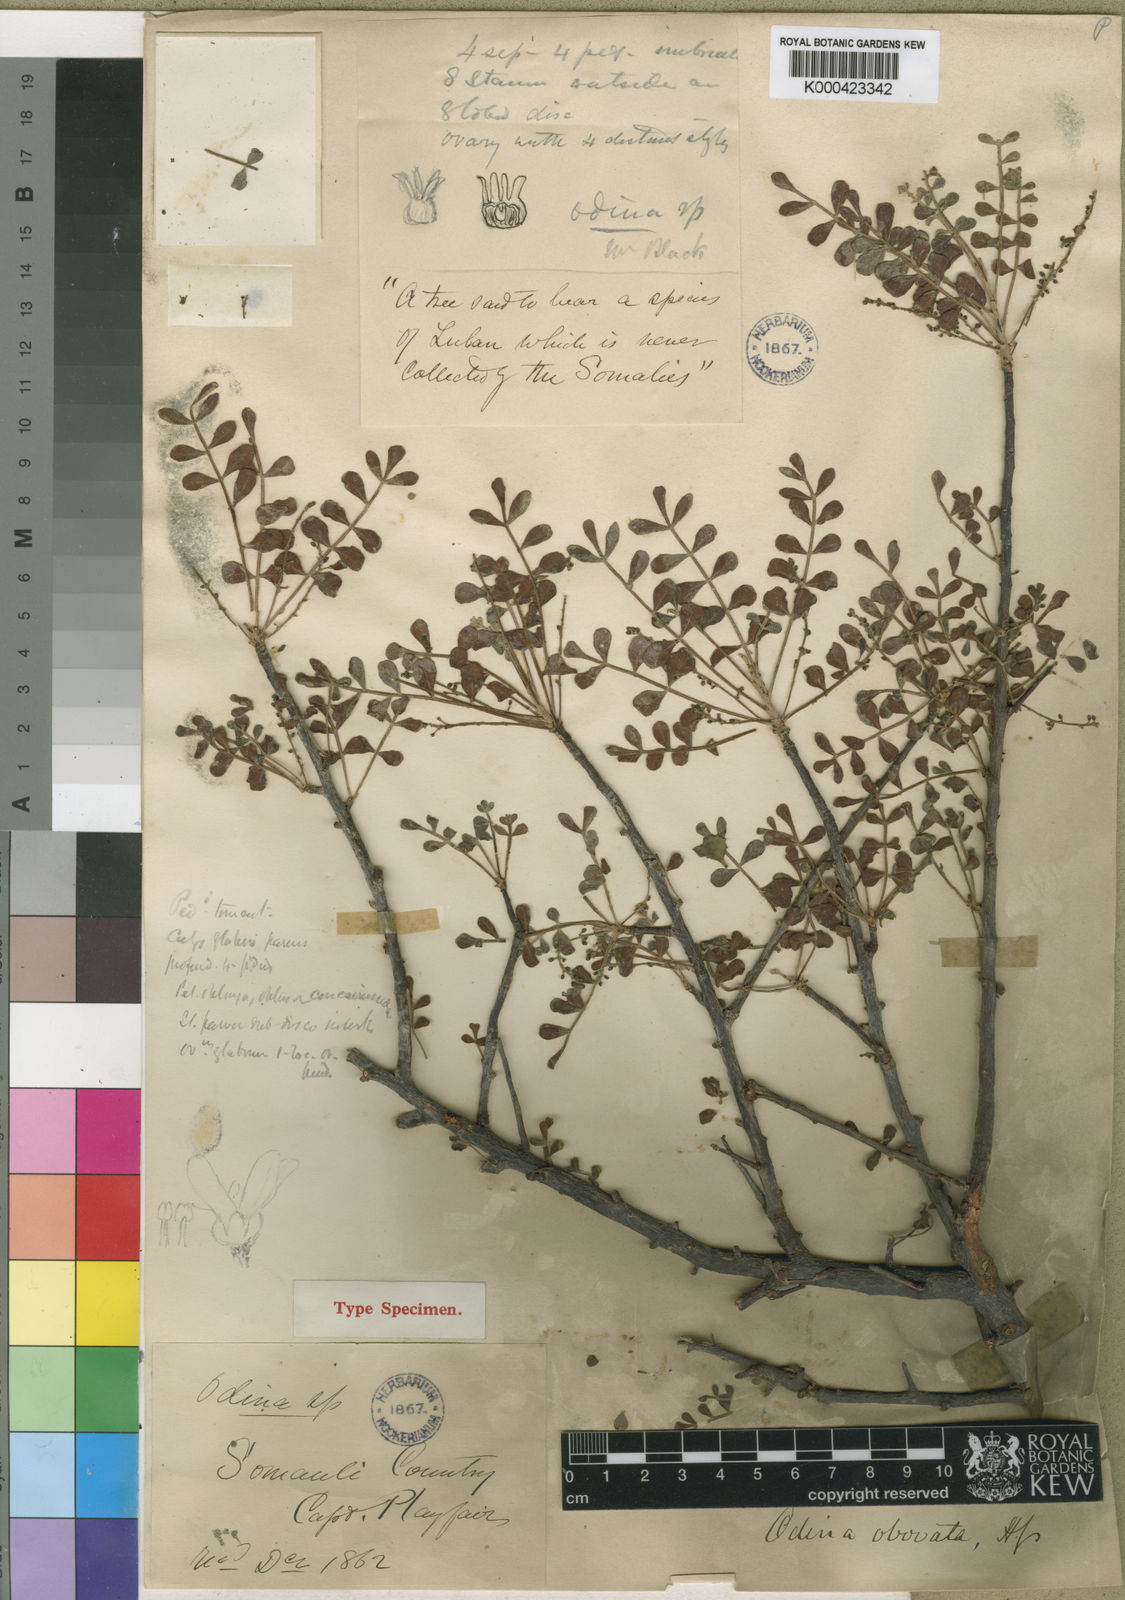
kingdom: Plantae
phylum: Tracheophyta
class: Magnoliopsida
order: Sapindales
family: Anacardiaceae
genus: Lannea
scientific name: Lannea obovata
